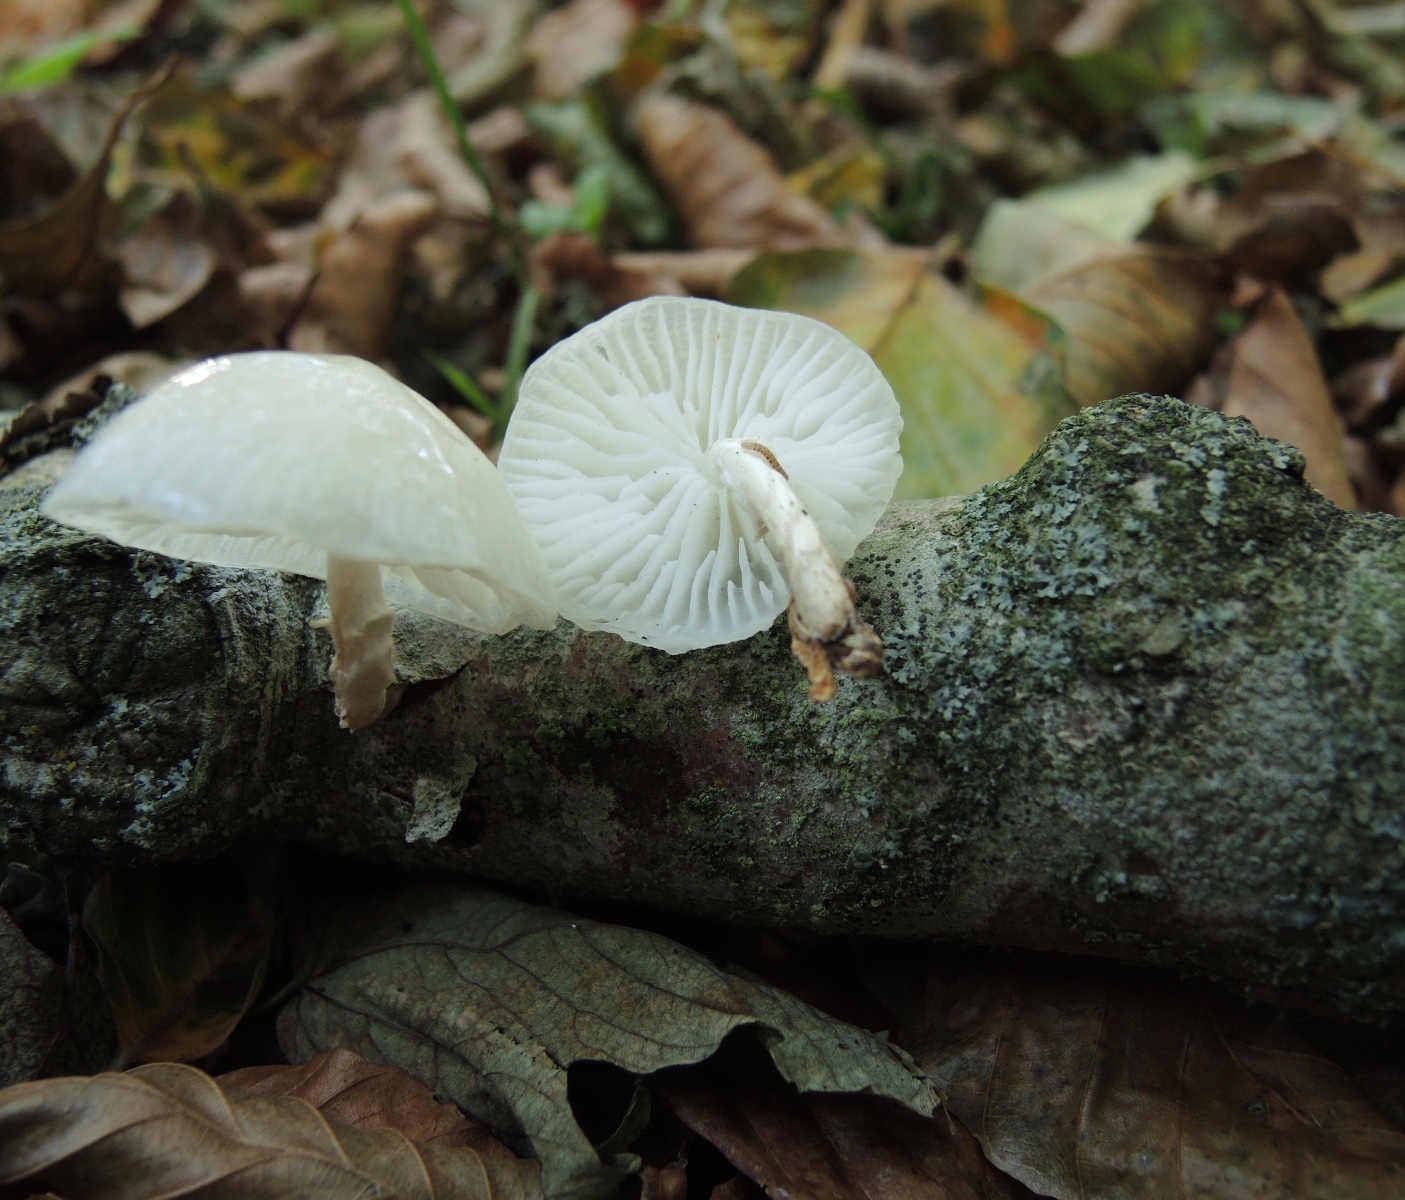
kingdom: Fungi
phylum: Basidiomycota
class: Agaricomycetes
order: Agaricales
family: Physalacriaceae
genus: Mucidula
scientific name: Mucidula mucida
